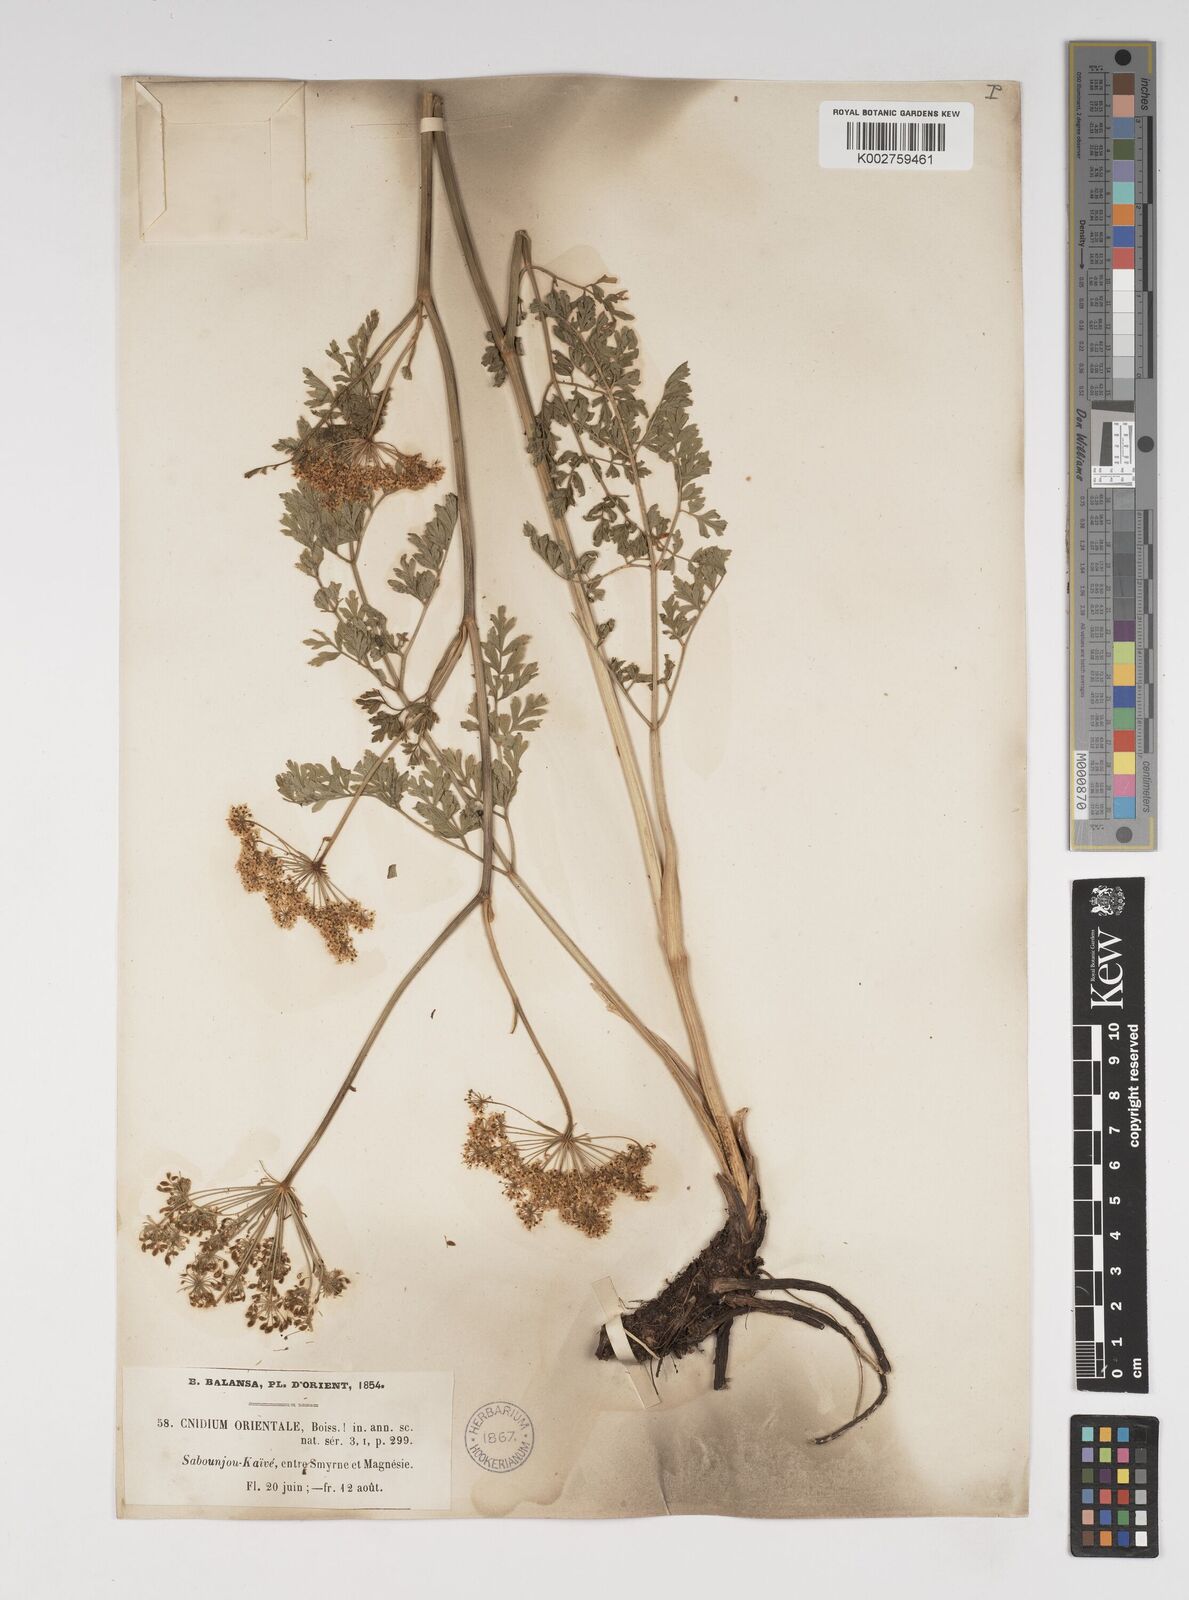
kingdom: Plantae
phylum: Tracheophyta
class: Magnoliopsida
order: Apiales
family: Apiaceae
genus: Katapsuxis
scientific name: Katapsuxis silaifolia
